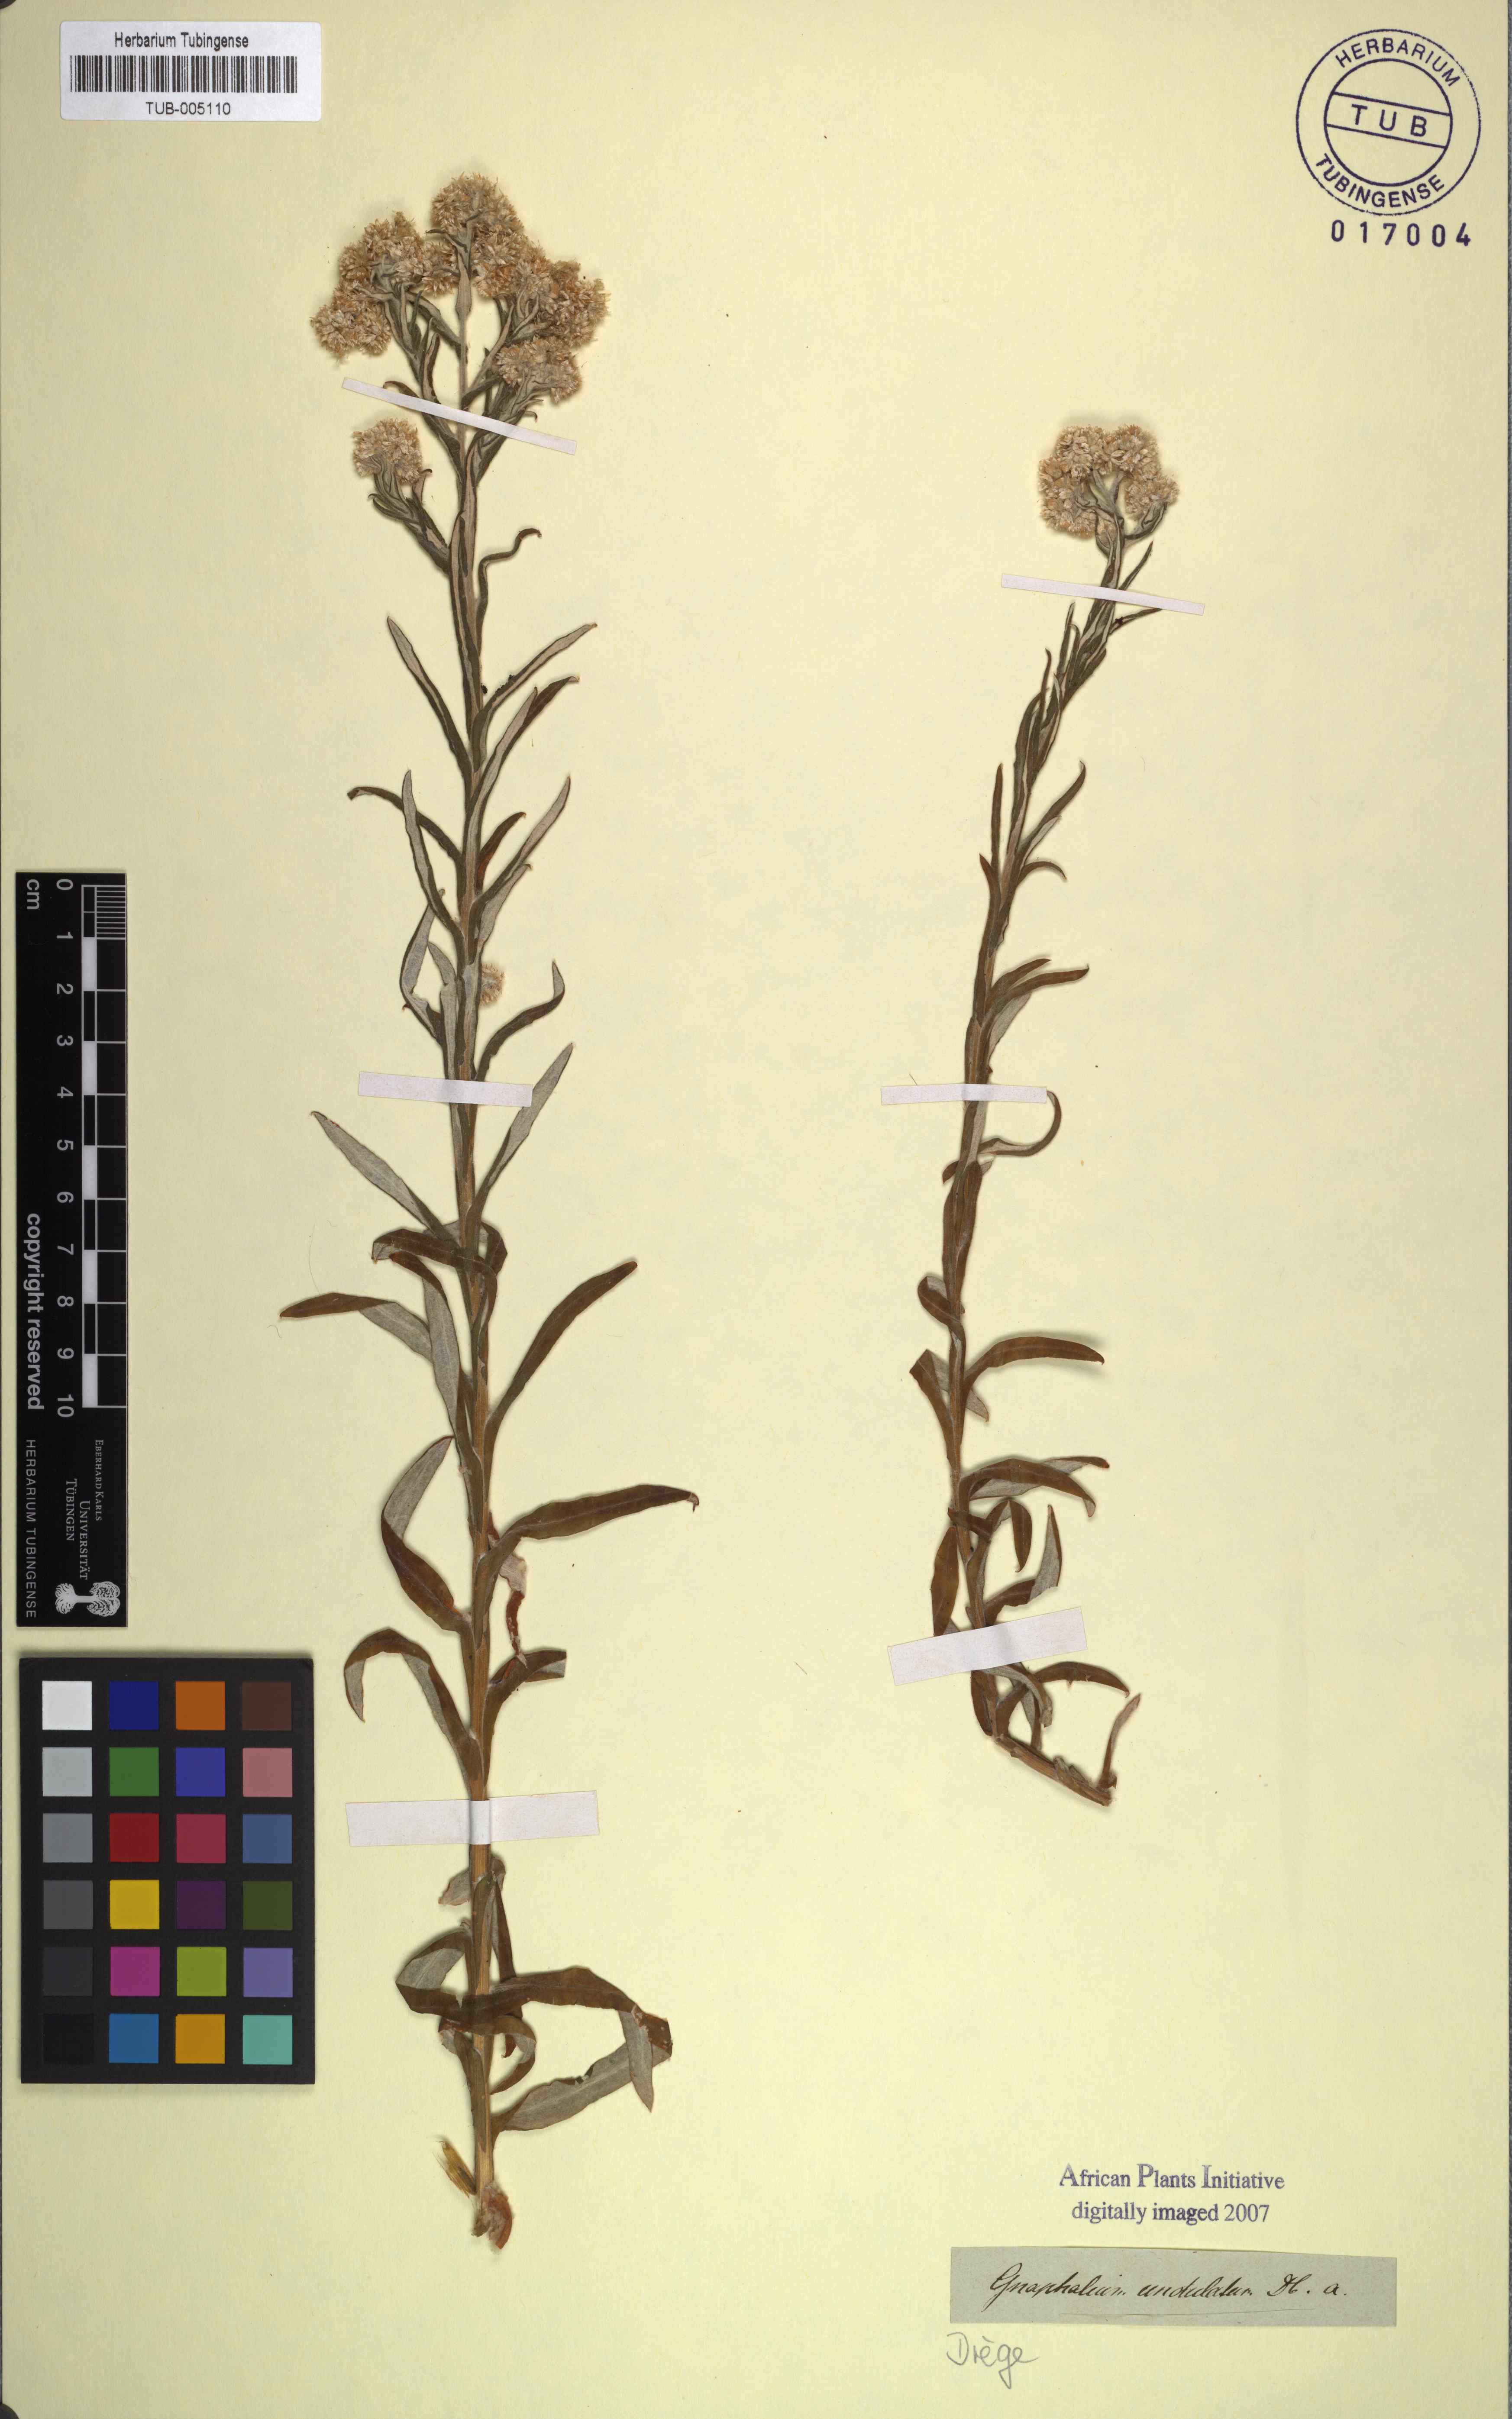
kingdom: Plantae
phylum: Tracheophyta
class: Magnoliopsida
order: Asterales
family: Asteraceae
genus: Pseudognaphalium
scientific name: Pseudognaphalium undulatum
